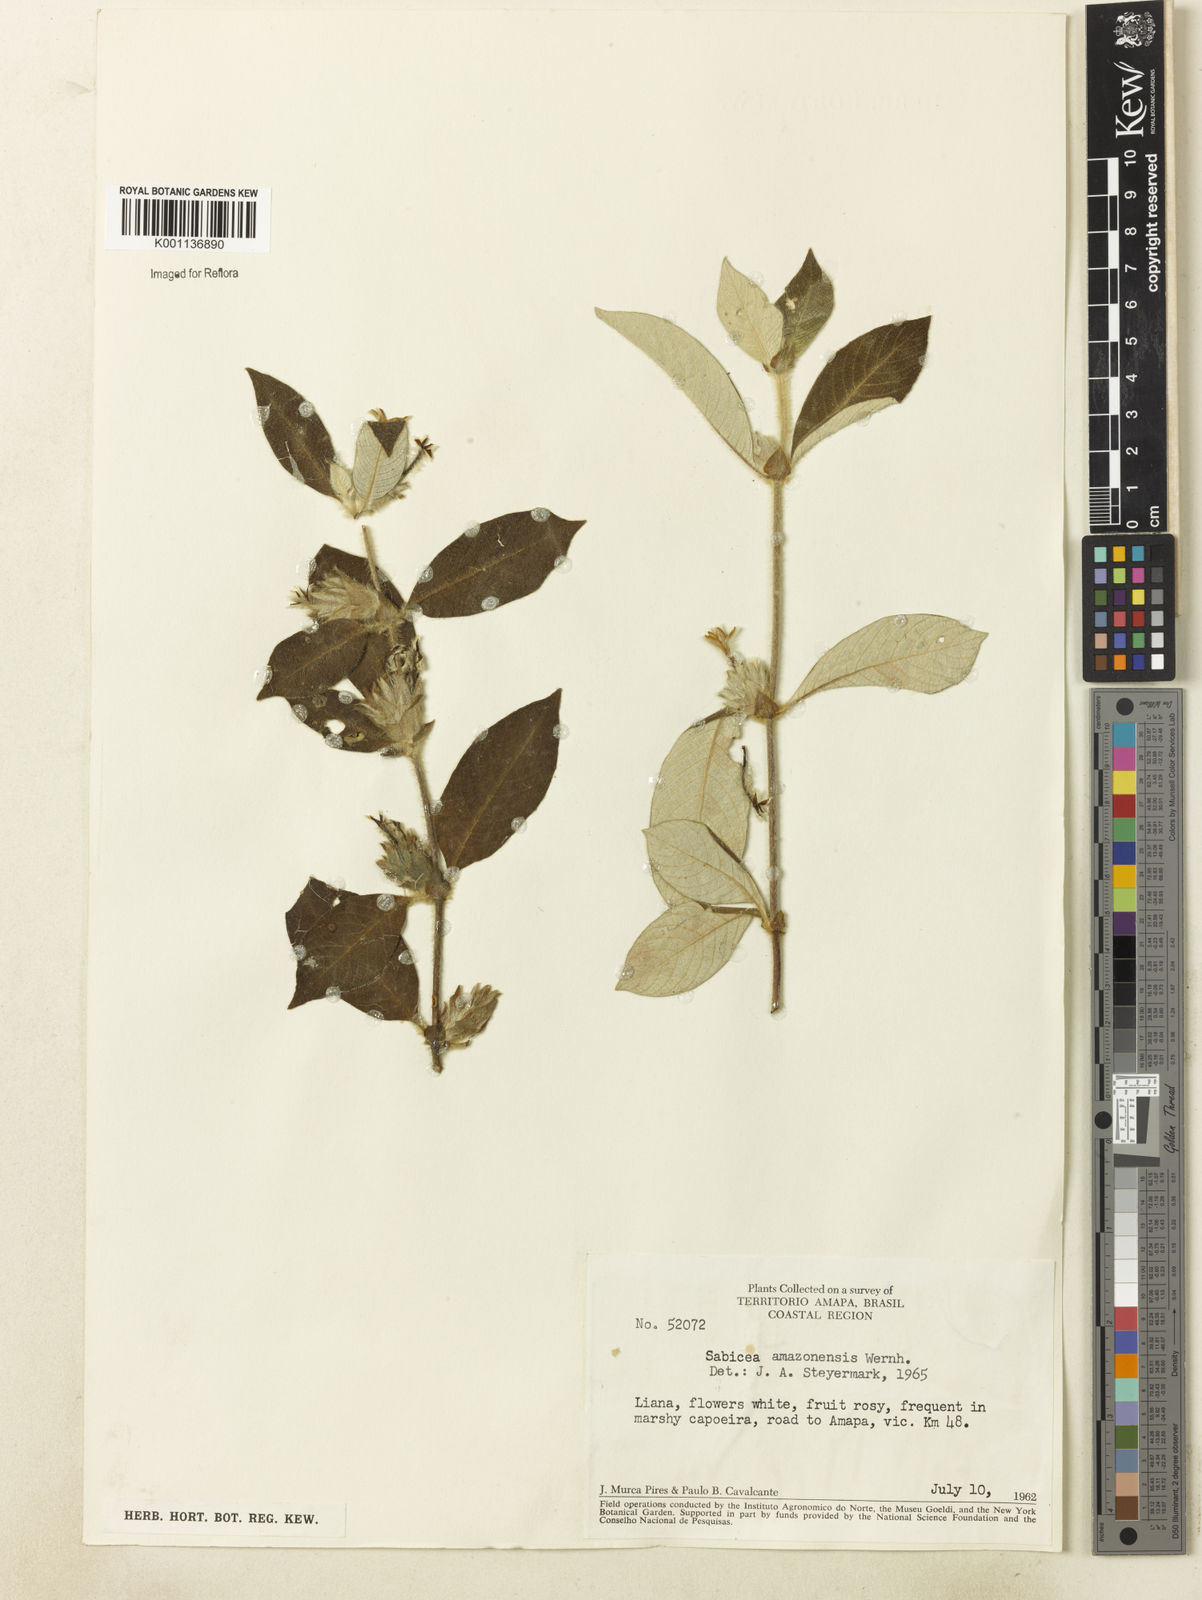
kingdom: Plantae
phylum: Tracheophyta
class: Magnoliopsida
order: Gentianales
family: Rubiaceae
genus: Sabicea
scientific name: Sabicea amazonensis
